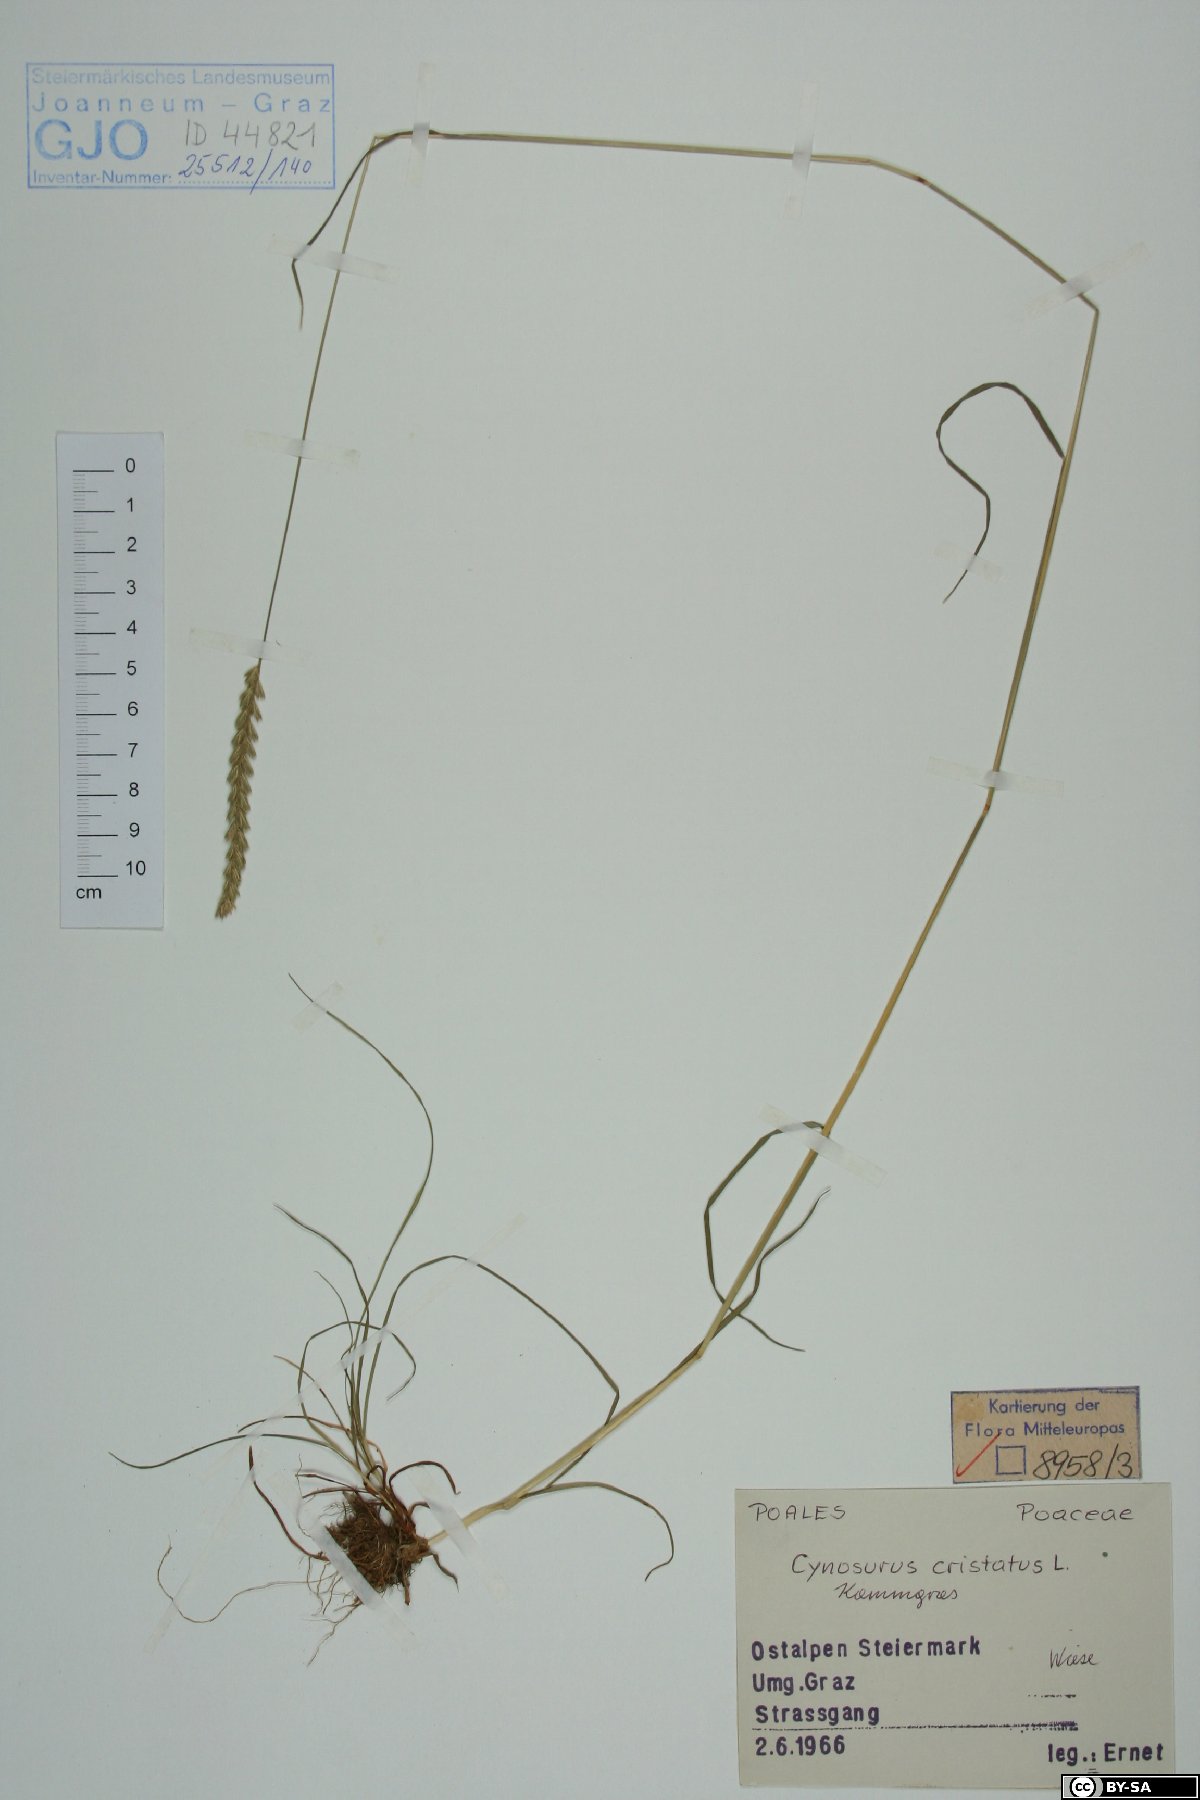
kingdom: Plantae
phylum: Tracheophyta
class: Liliopsida
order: Poales
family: Poaceae
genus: Cynosurus
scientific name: Cynosurus cristatus
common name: Crested dog's-tail
